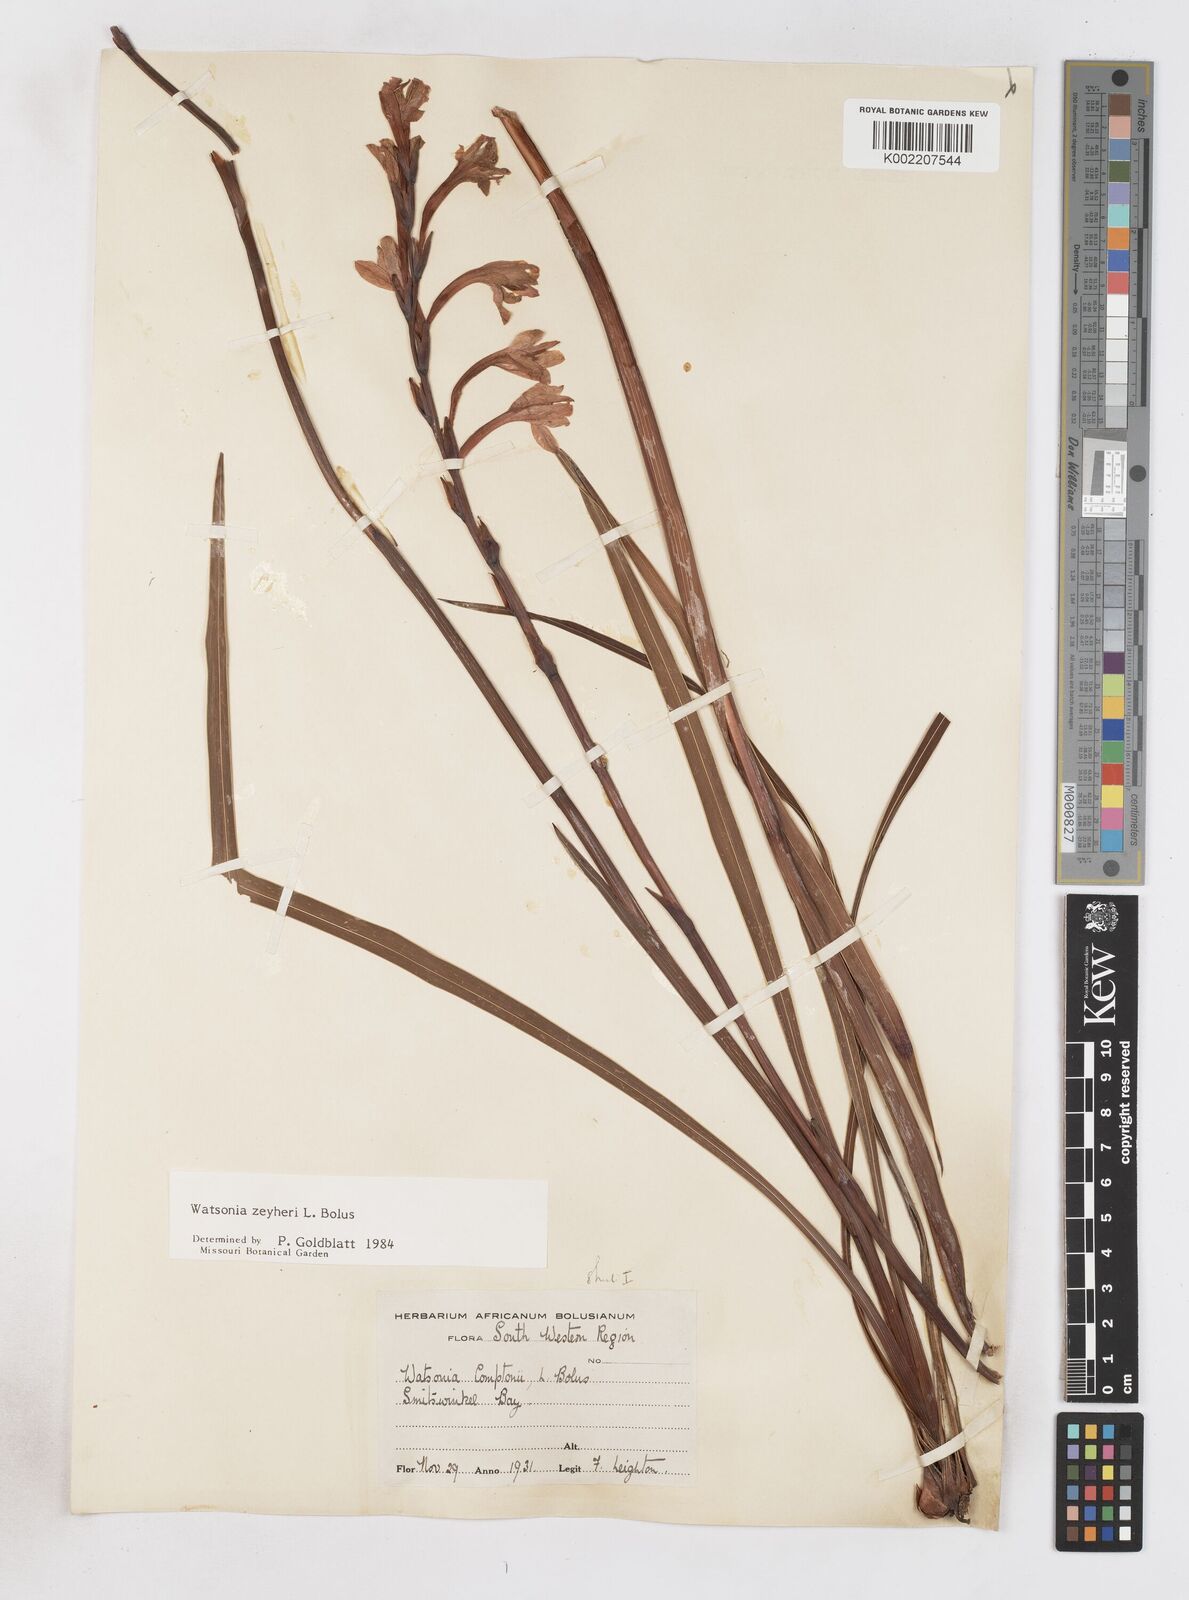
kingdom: Plantae
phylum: Tracheophyta
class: Liliopsida
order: Asparagales
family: Iridaceae
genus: Watsonia
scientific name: Watsonia zeyheri
